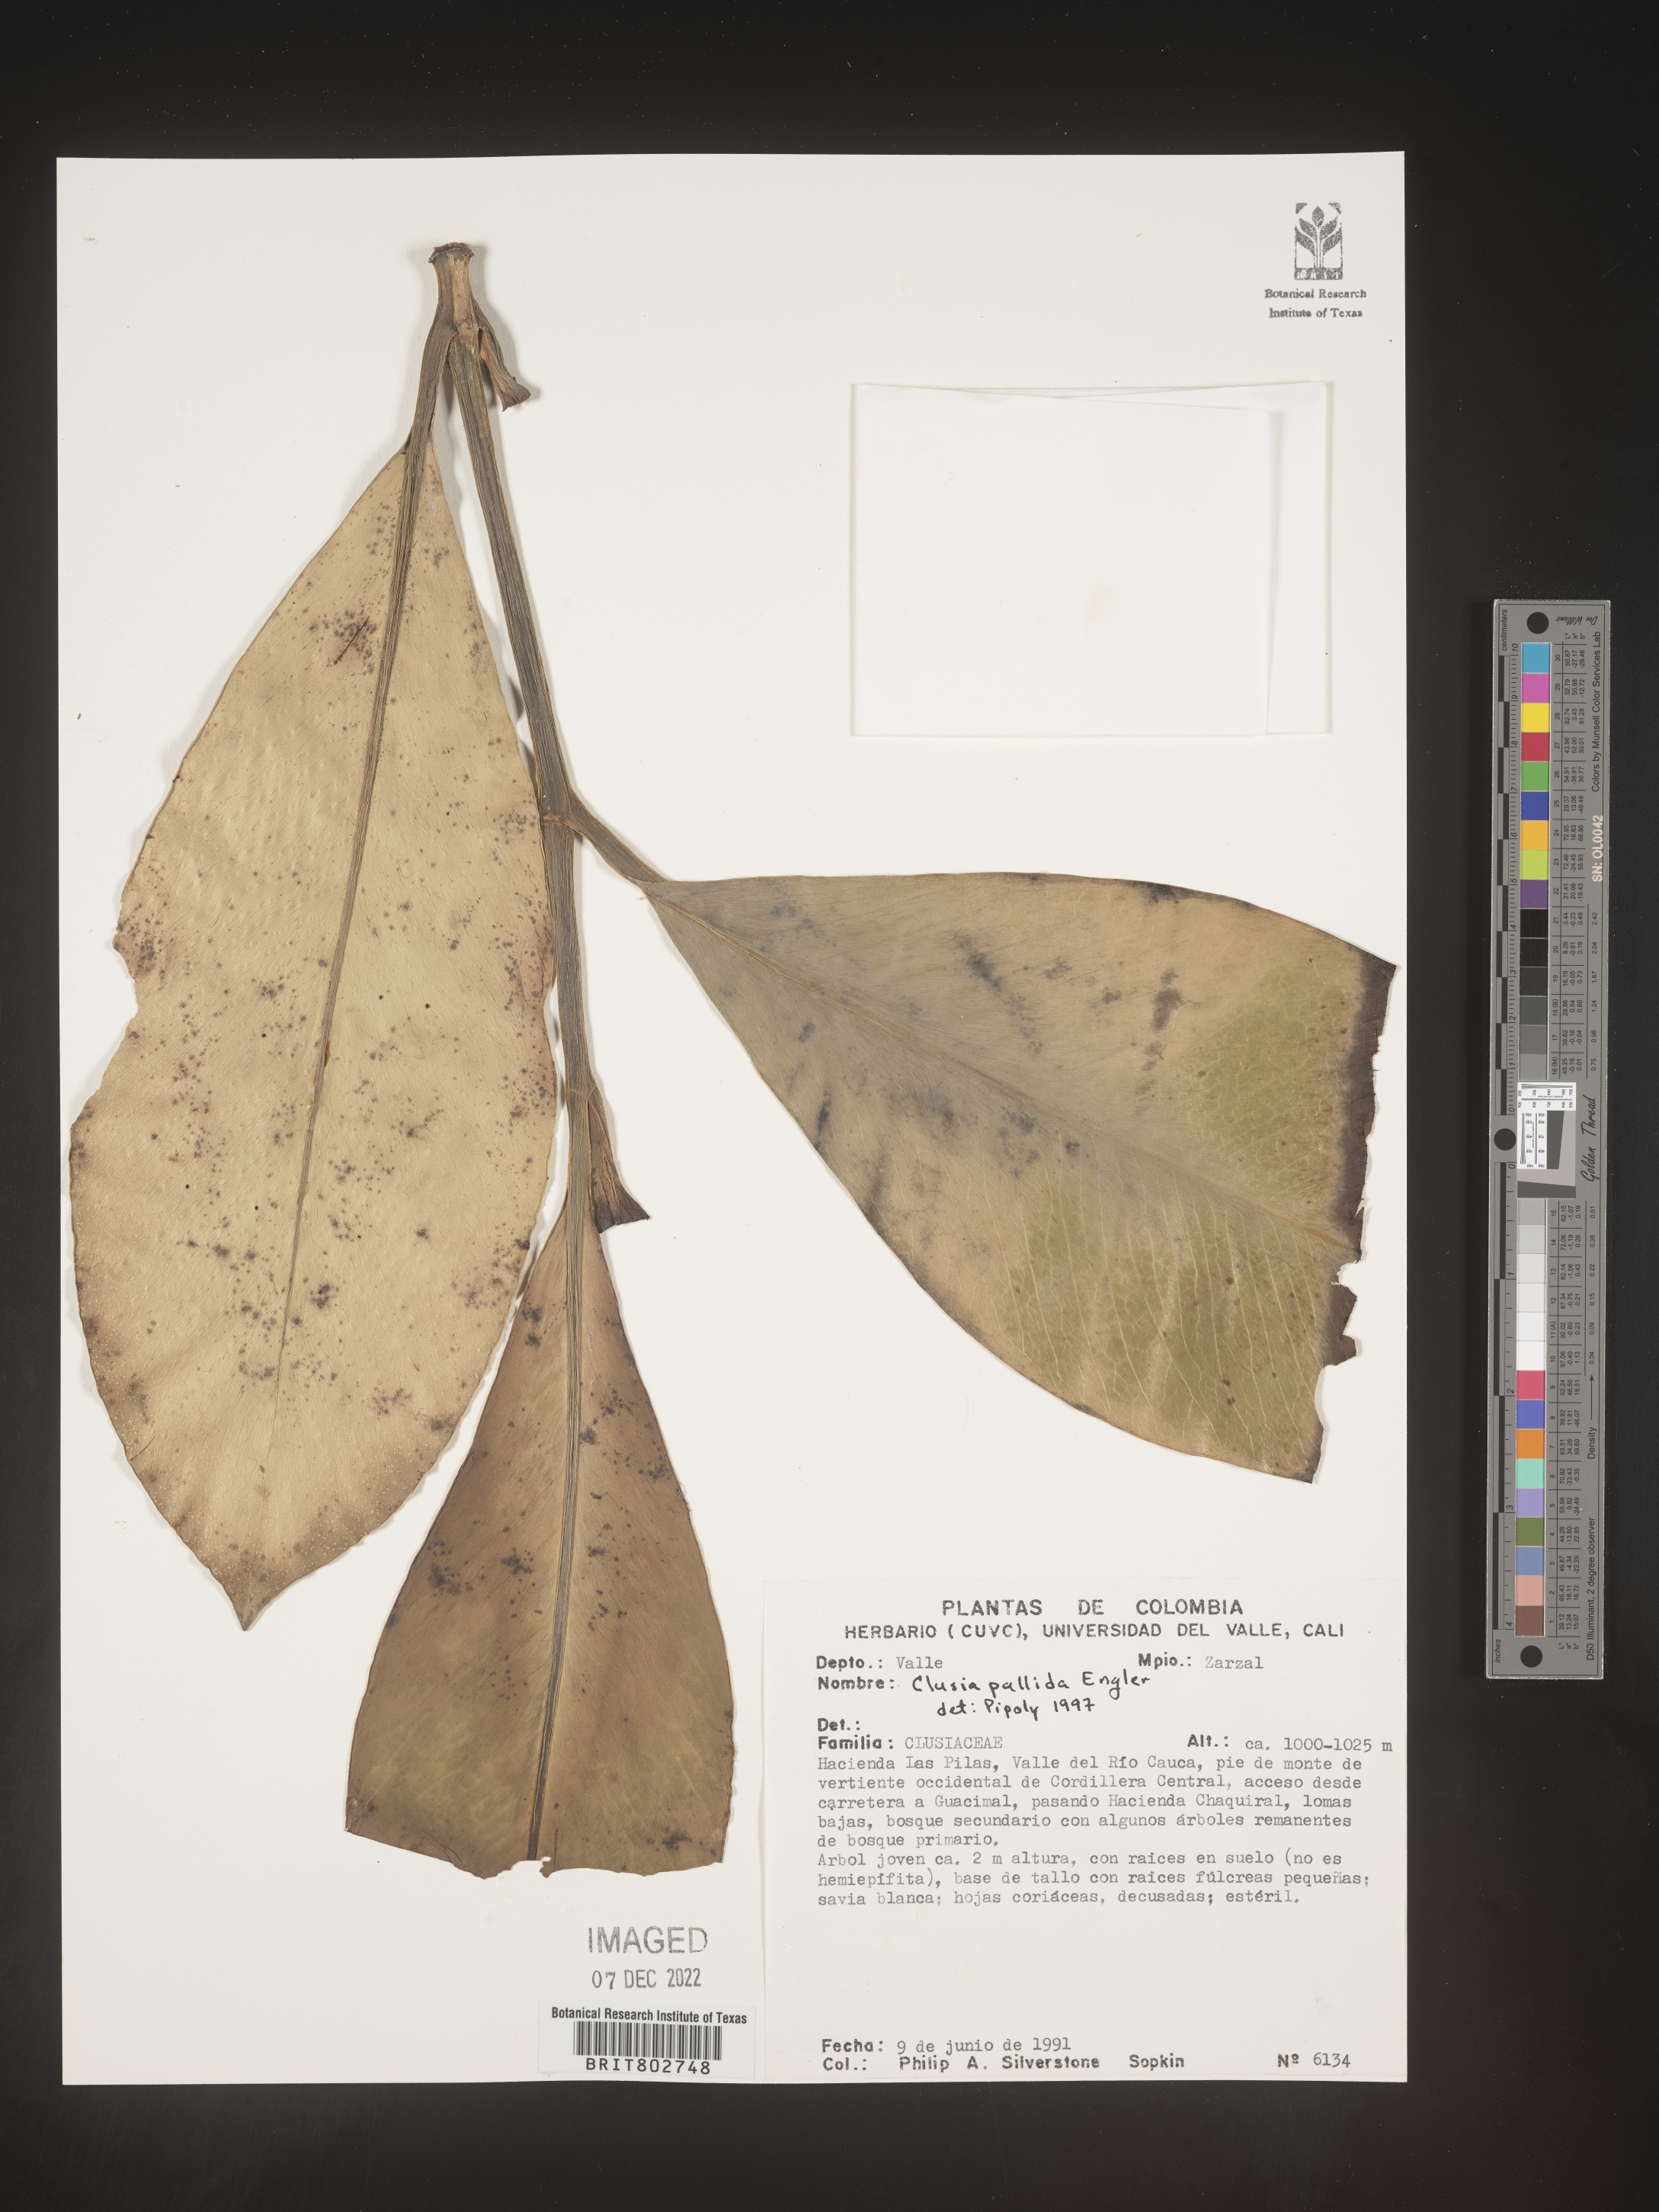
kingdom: Plantae
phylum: Tracheophyta
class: Magnoliopsida
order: Malpighiales
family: Clusiaceae
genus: Clusia
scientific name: Clusia pallida
